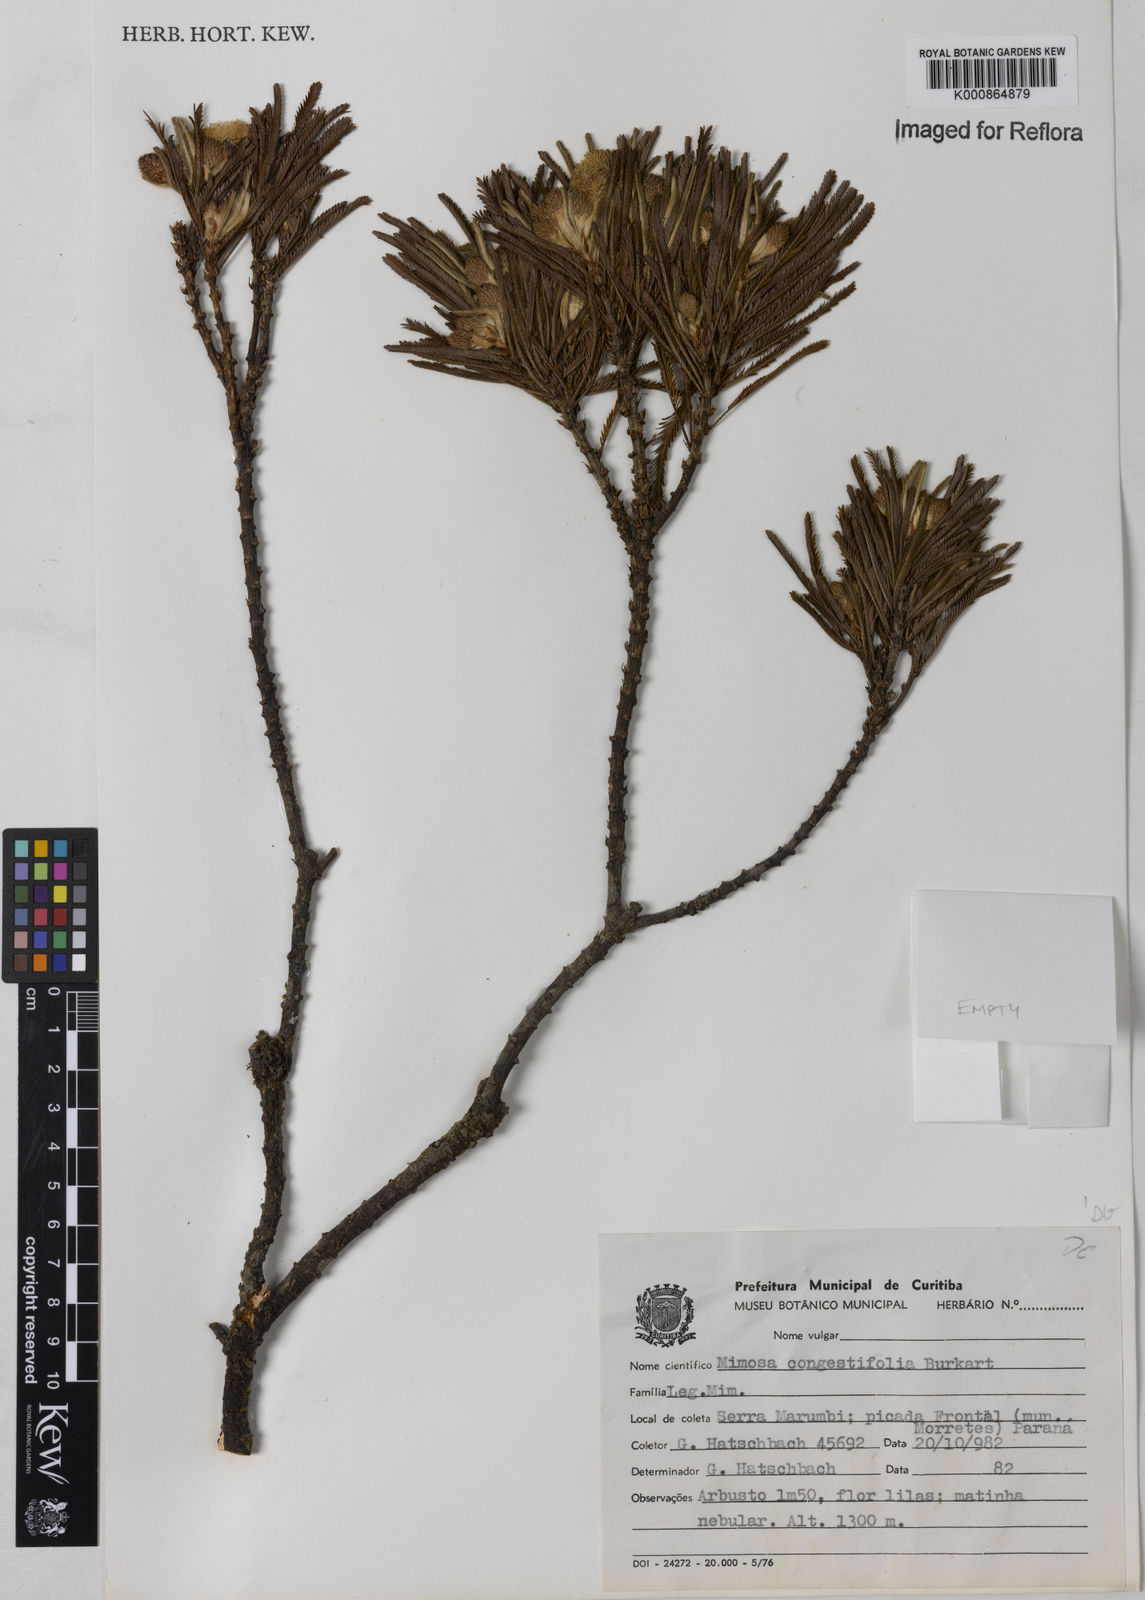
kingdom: Plantae
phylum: Tracheophyta
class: Magnoliopsida
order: Fabales
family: Fabaceae
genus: Mimosa
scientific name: Mimosa congestifolia
